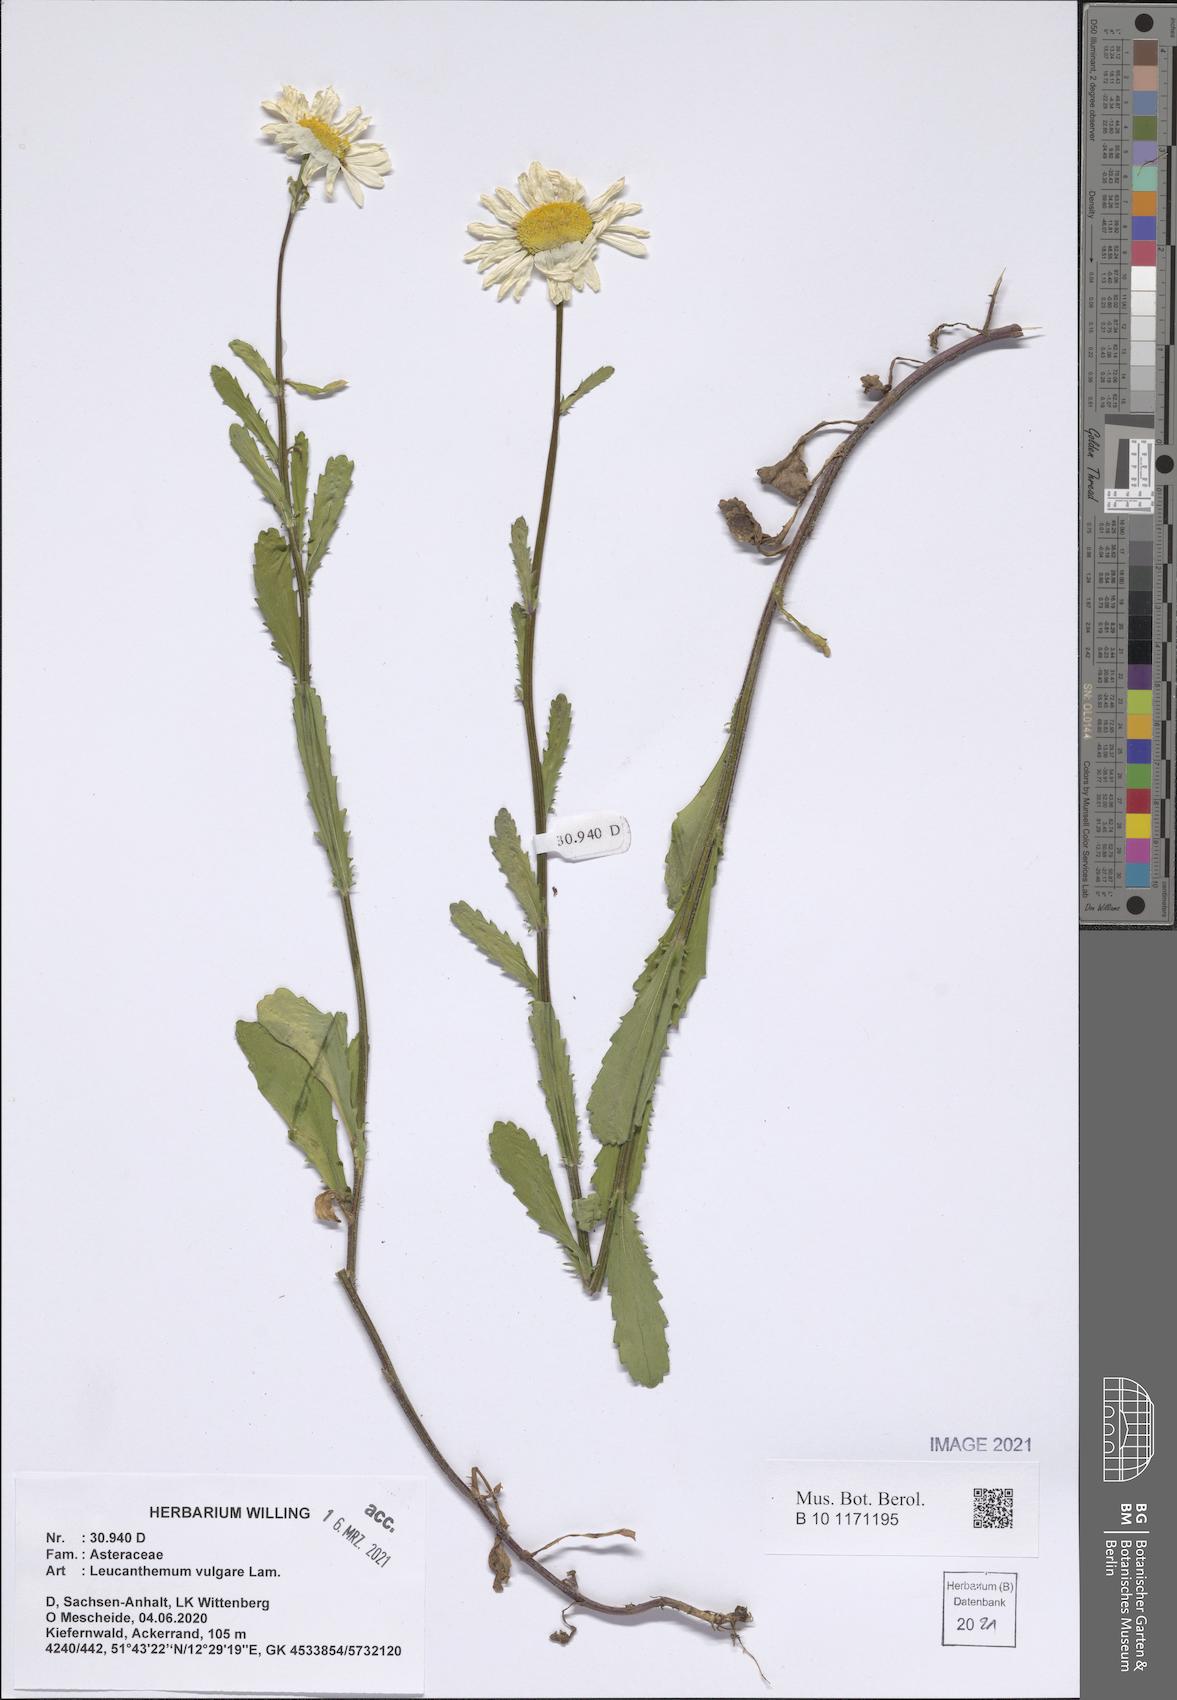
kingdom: Plantae
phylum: Tracheophyta
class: Magnoliopsida
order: Asterales
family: Asteraceae
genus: Leucanthemum
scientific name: Leucanthemum ircutianum
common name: Daisy
